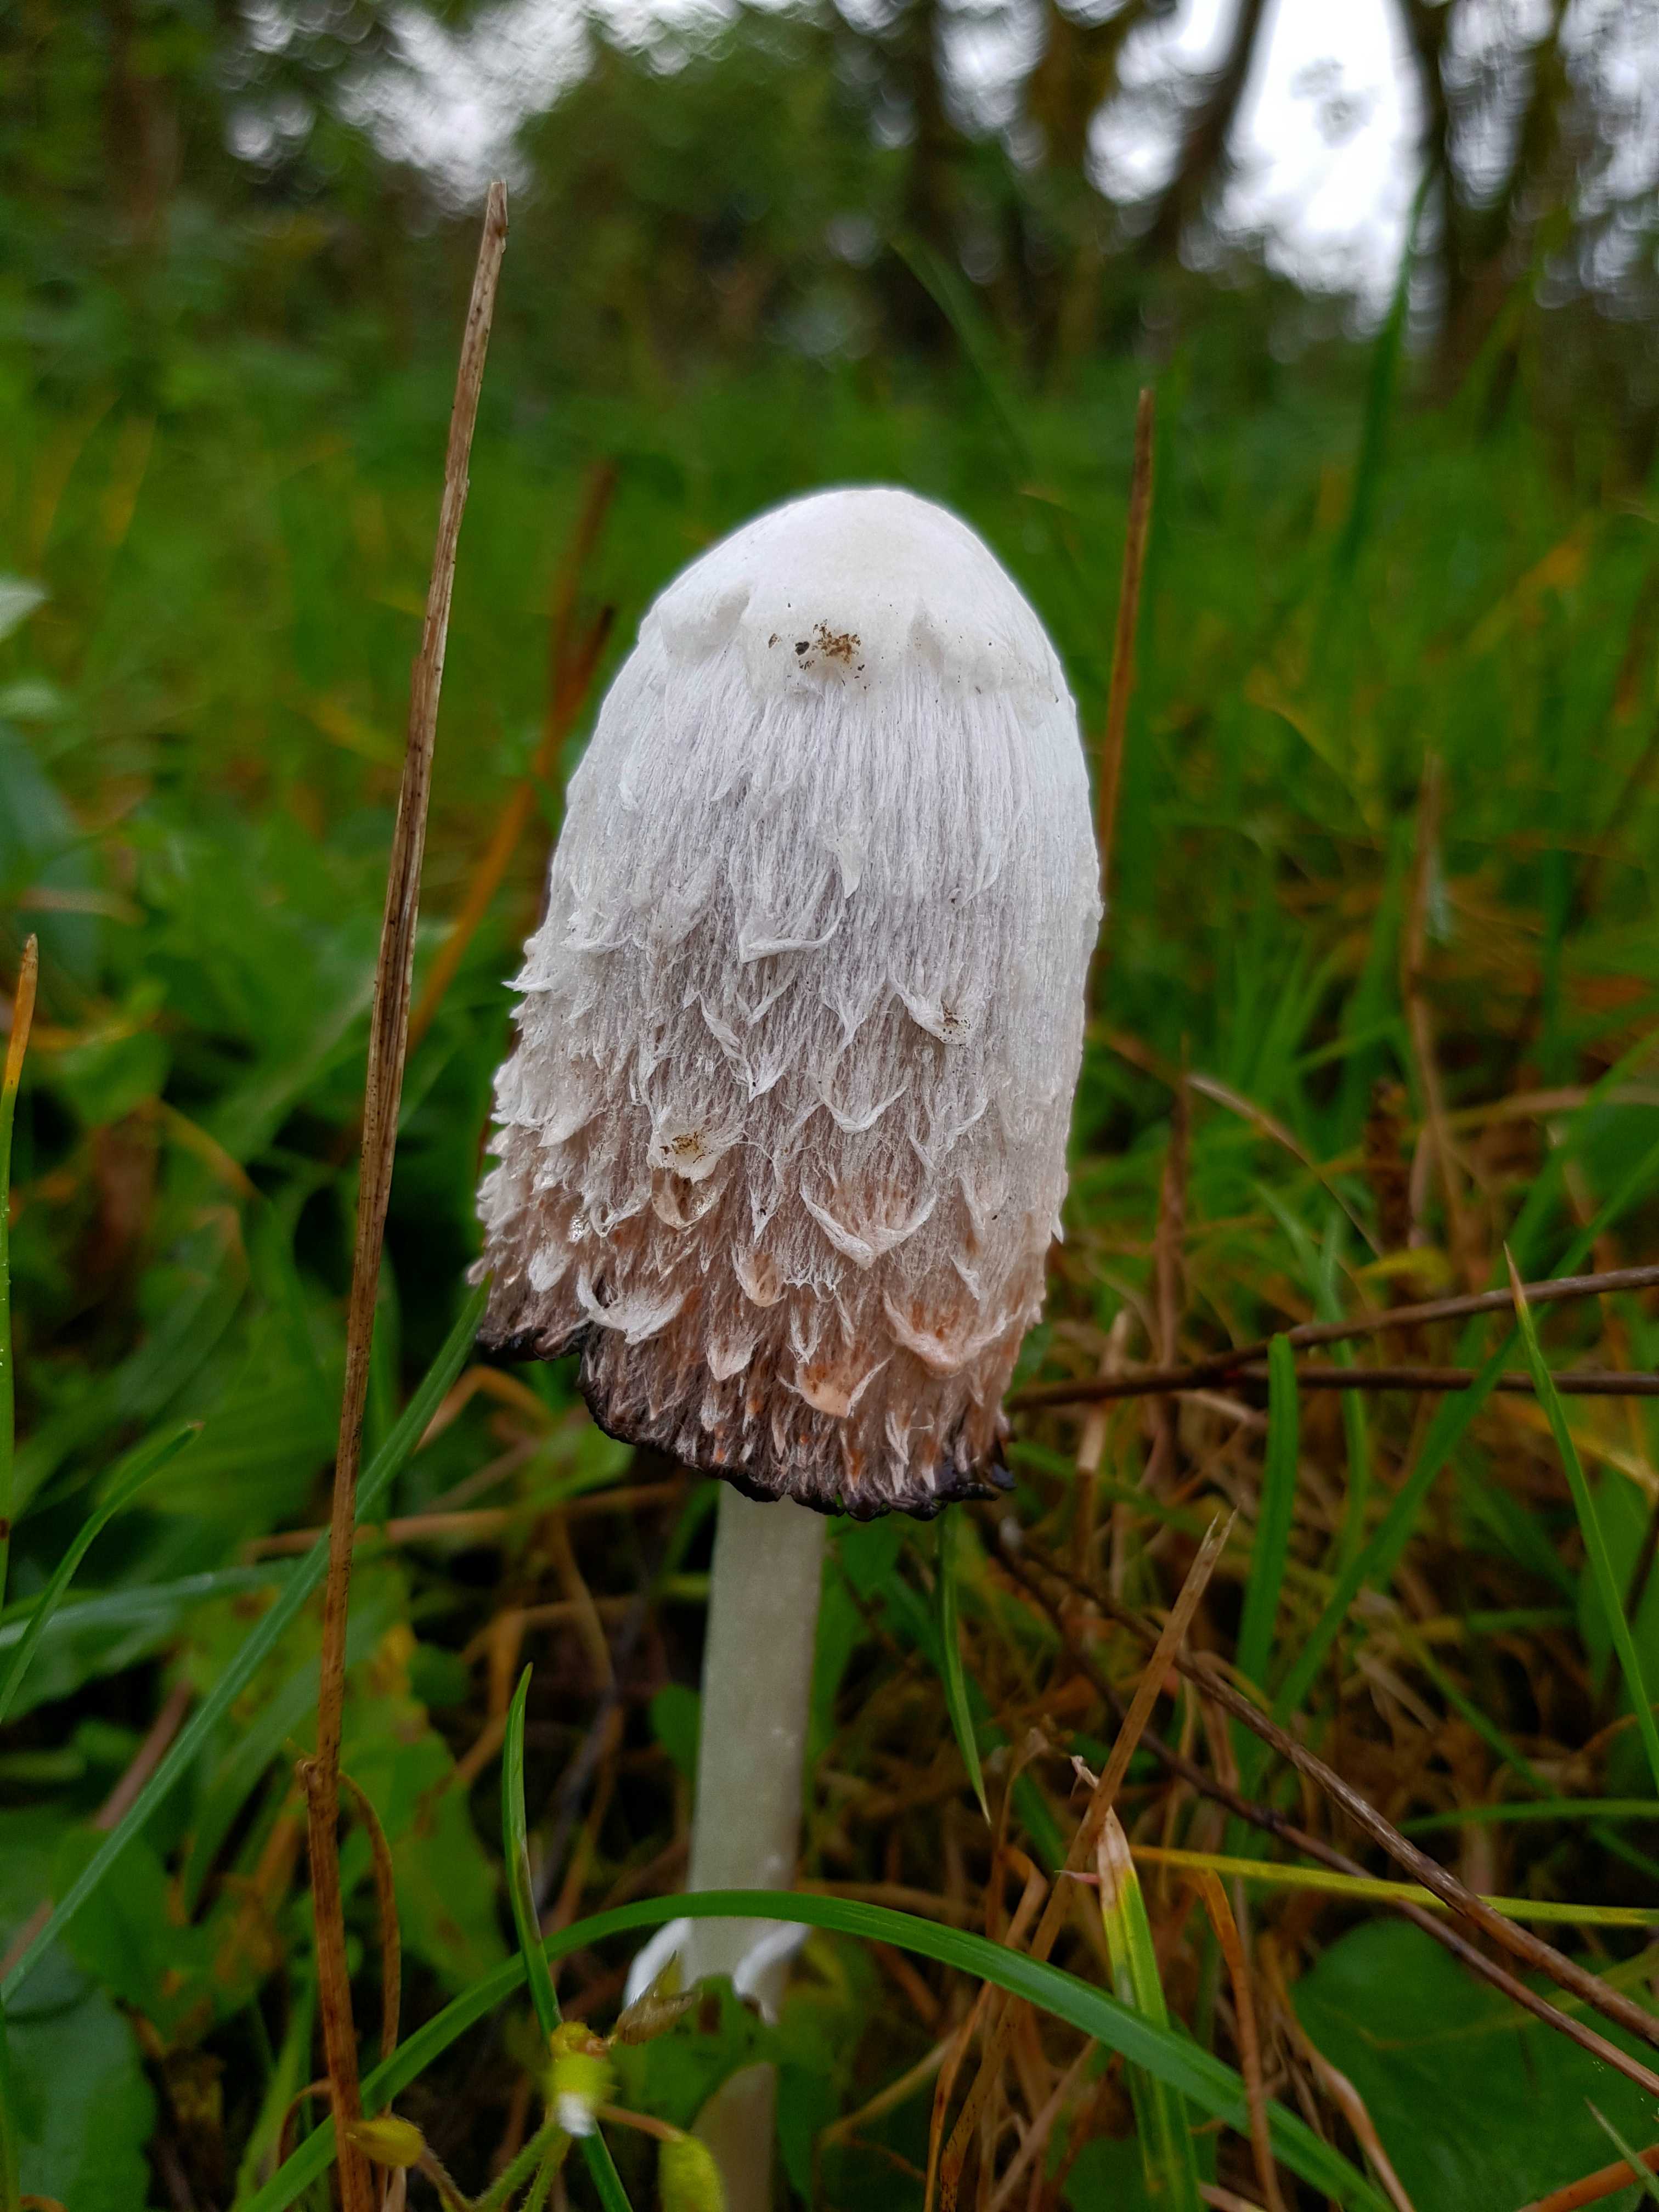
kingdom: Fungi
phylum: Basidiomycota
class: Agaricomycetes
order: Agaricales
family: Agaricaceae
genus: Coprinus
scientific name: Coprinus comatus
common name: stor parykhat
